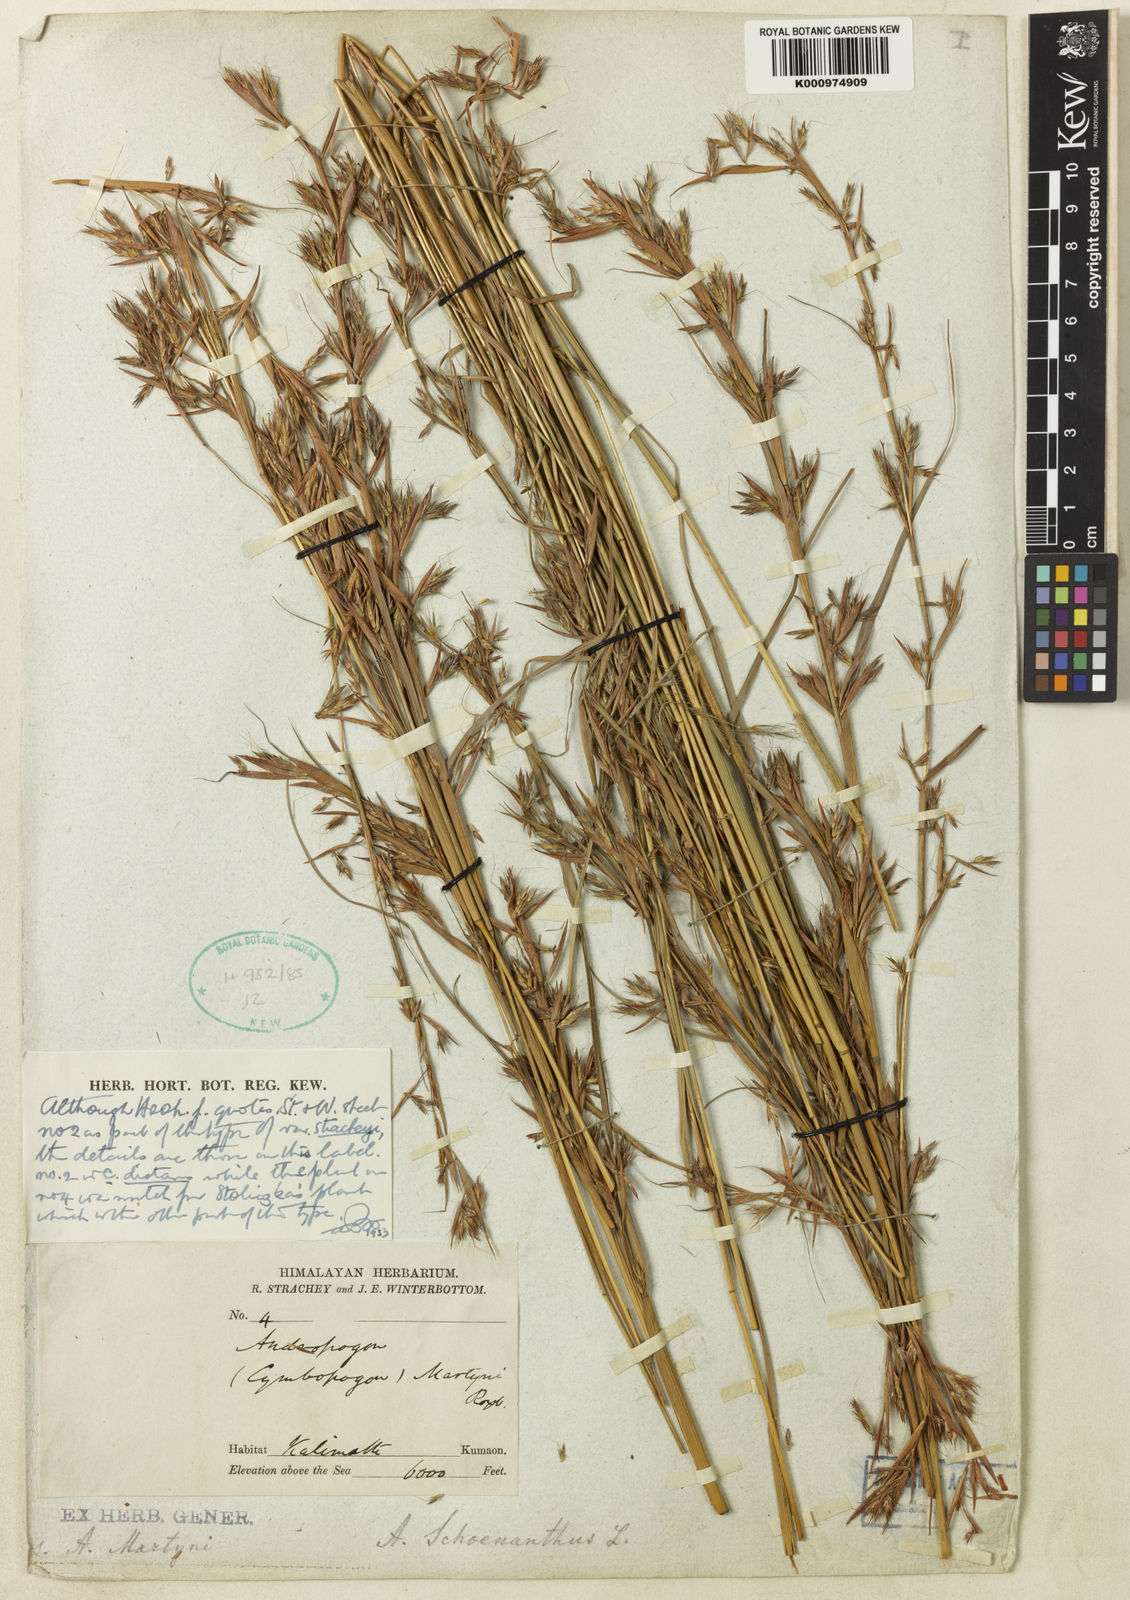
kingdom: Plantae
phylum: Tracheophyta
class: Liliopsida
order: Poales
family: Poaceae
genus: Cymbopogon
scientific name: Cymbopogon pospischilii
